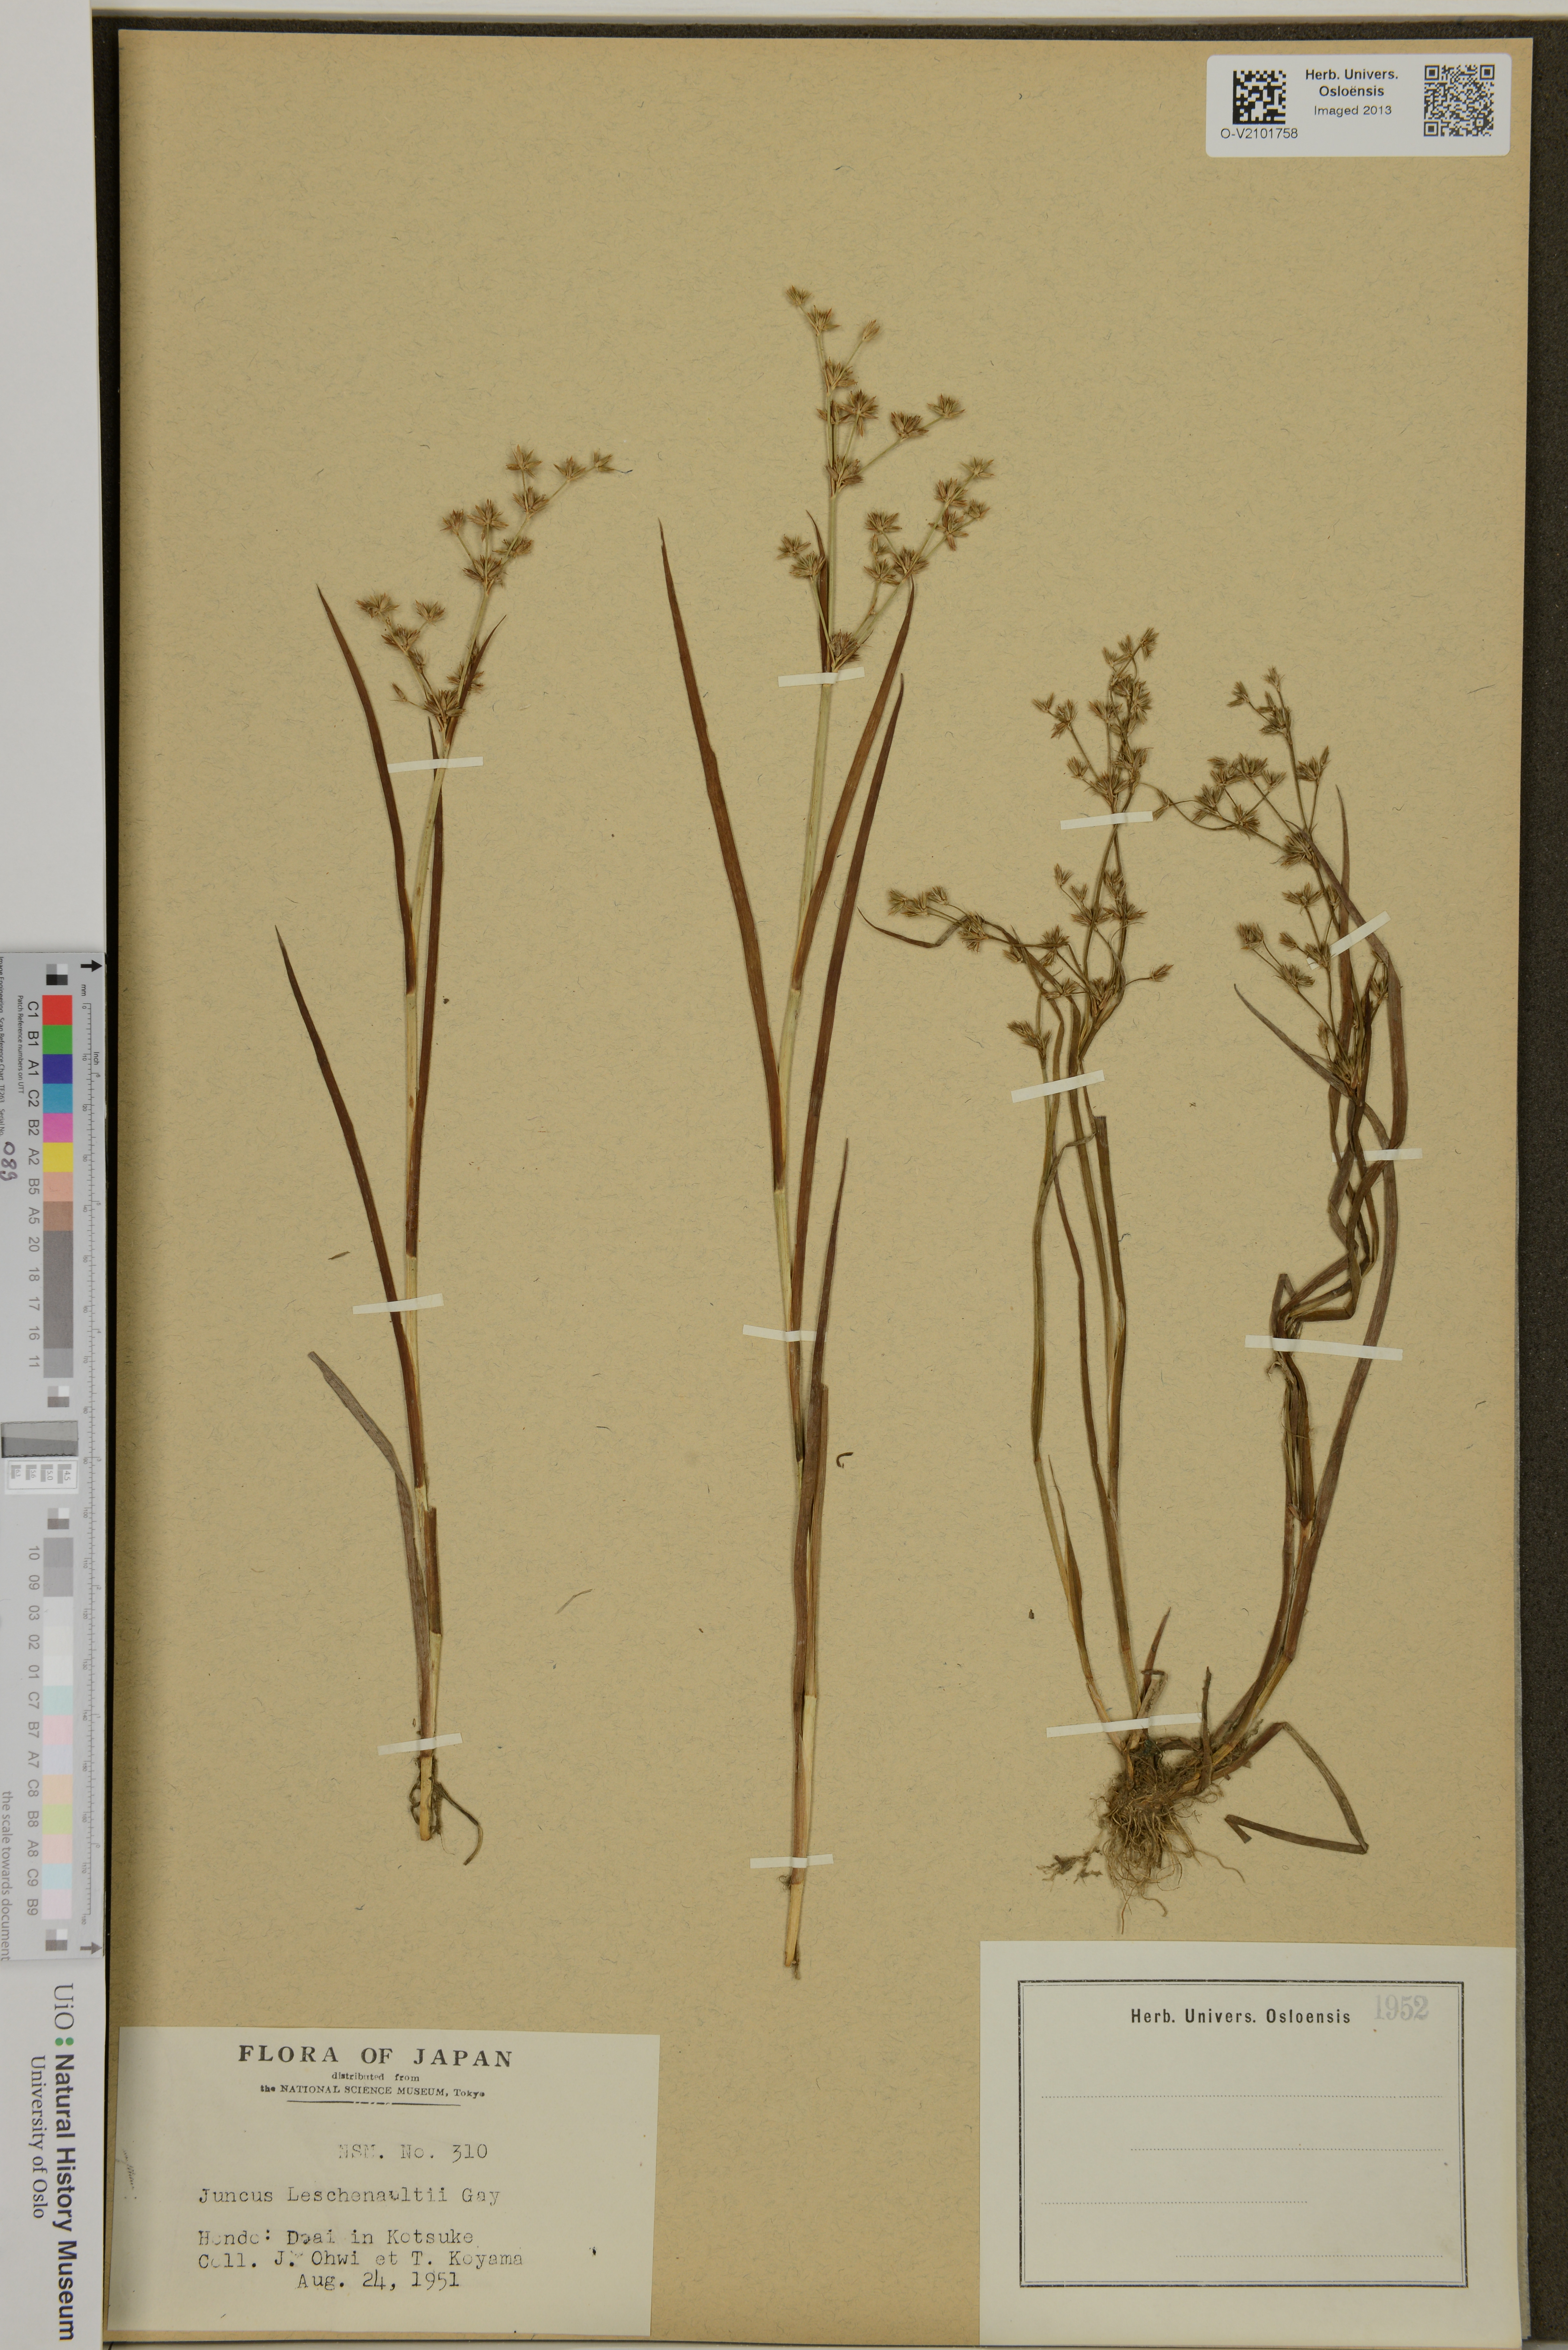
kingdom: Plantae
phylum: Tracheophyta
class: Liliopsida
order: Poales
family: Juncaceae
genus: Juncus
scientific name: Juncus prismatocarpus
